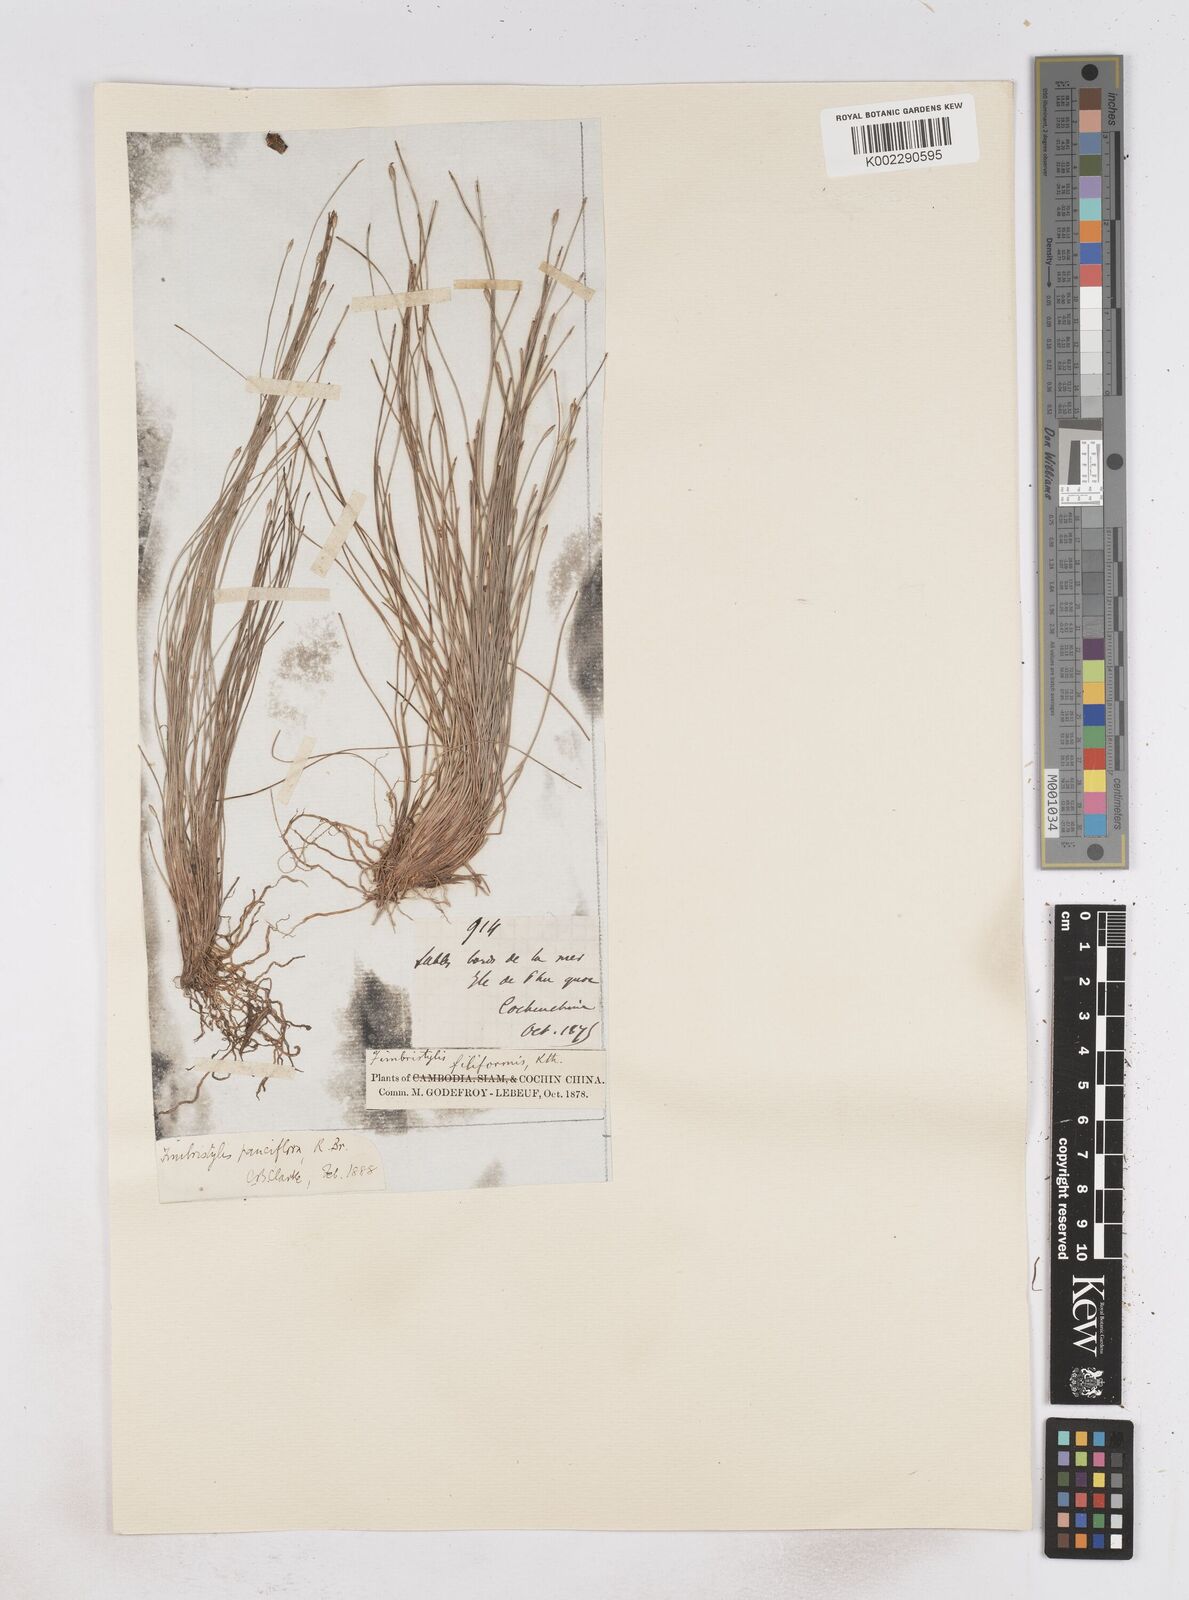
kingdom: Plantae
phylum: Tracheophyta
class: Liliopsida
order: Poales
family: Cyperaceae
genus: Fimbristylis
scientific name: Fimbristylis pauciflora
